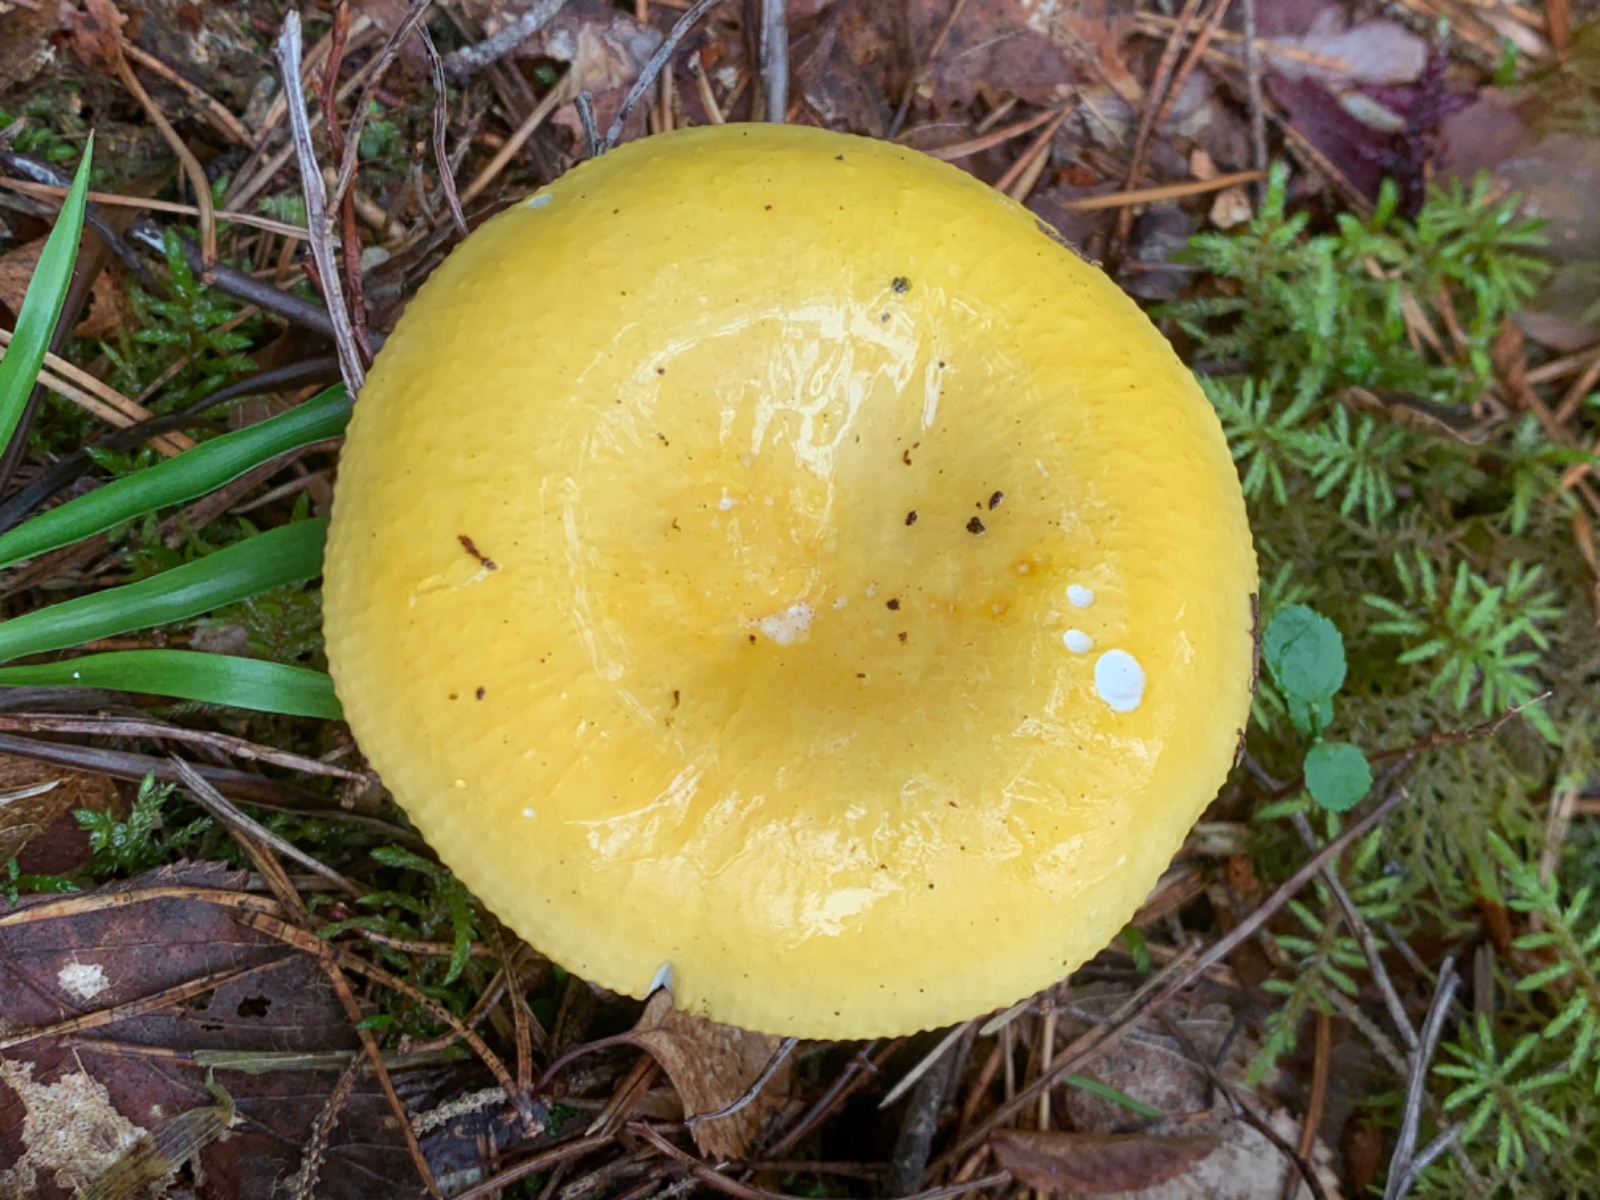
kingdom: Fungi
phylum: Basidiomycota
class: Agaricomycetes
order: Russulales
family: Russulaceae
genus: Russula
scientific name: Russula claroflava
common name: birke-skørhat
